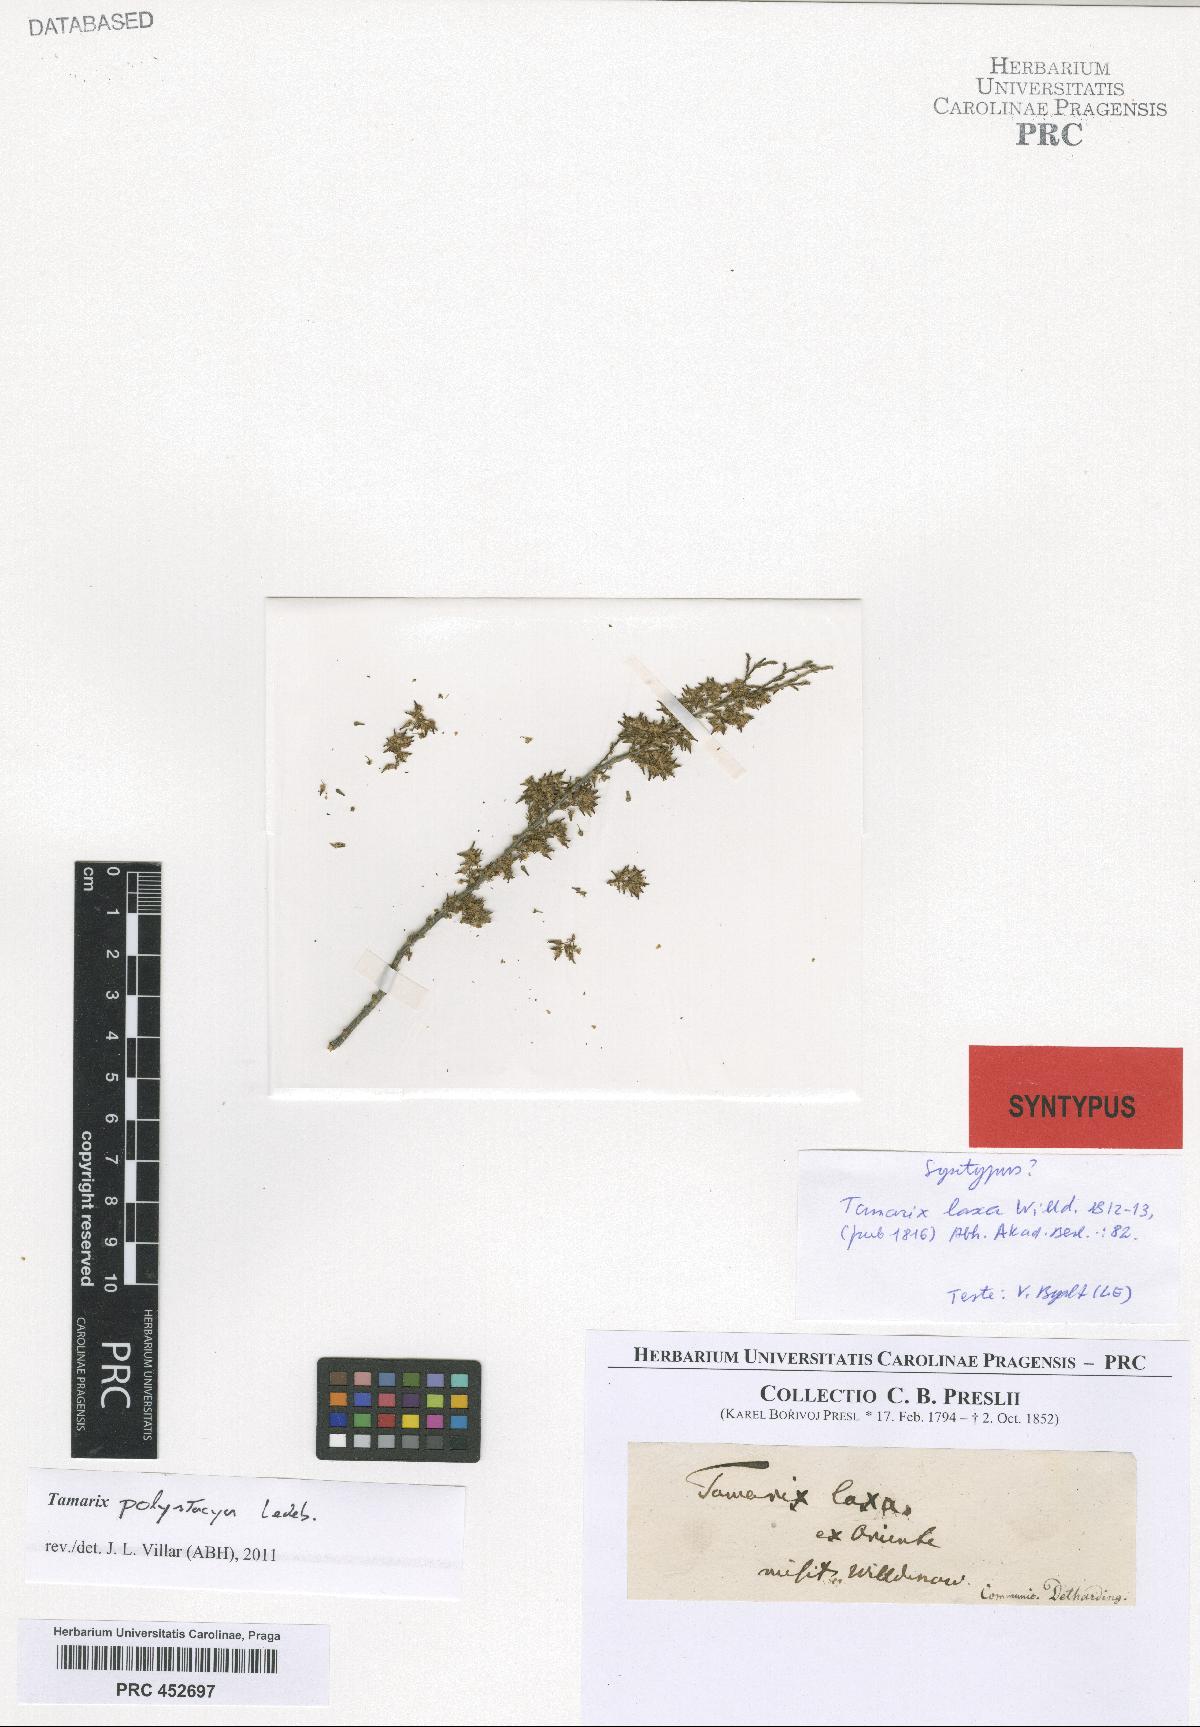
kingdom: Plantae
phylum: Tracheophyta
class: Magnoliopsida
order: Caryophyllales
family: Tamaricaceae
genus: Tamarix
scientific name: Tamarix laxa
